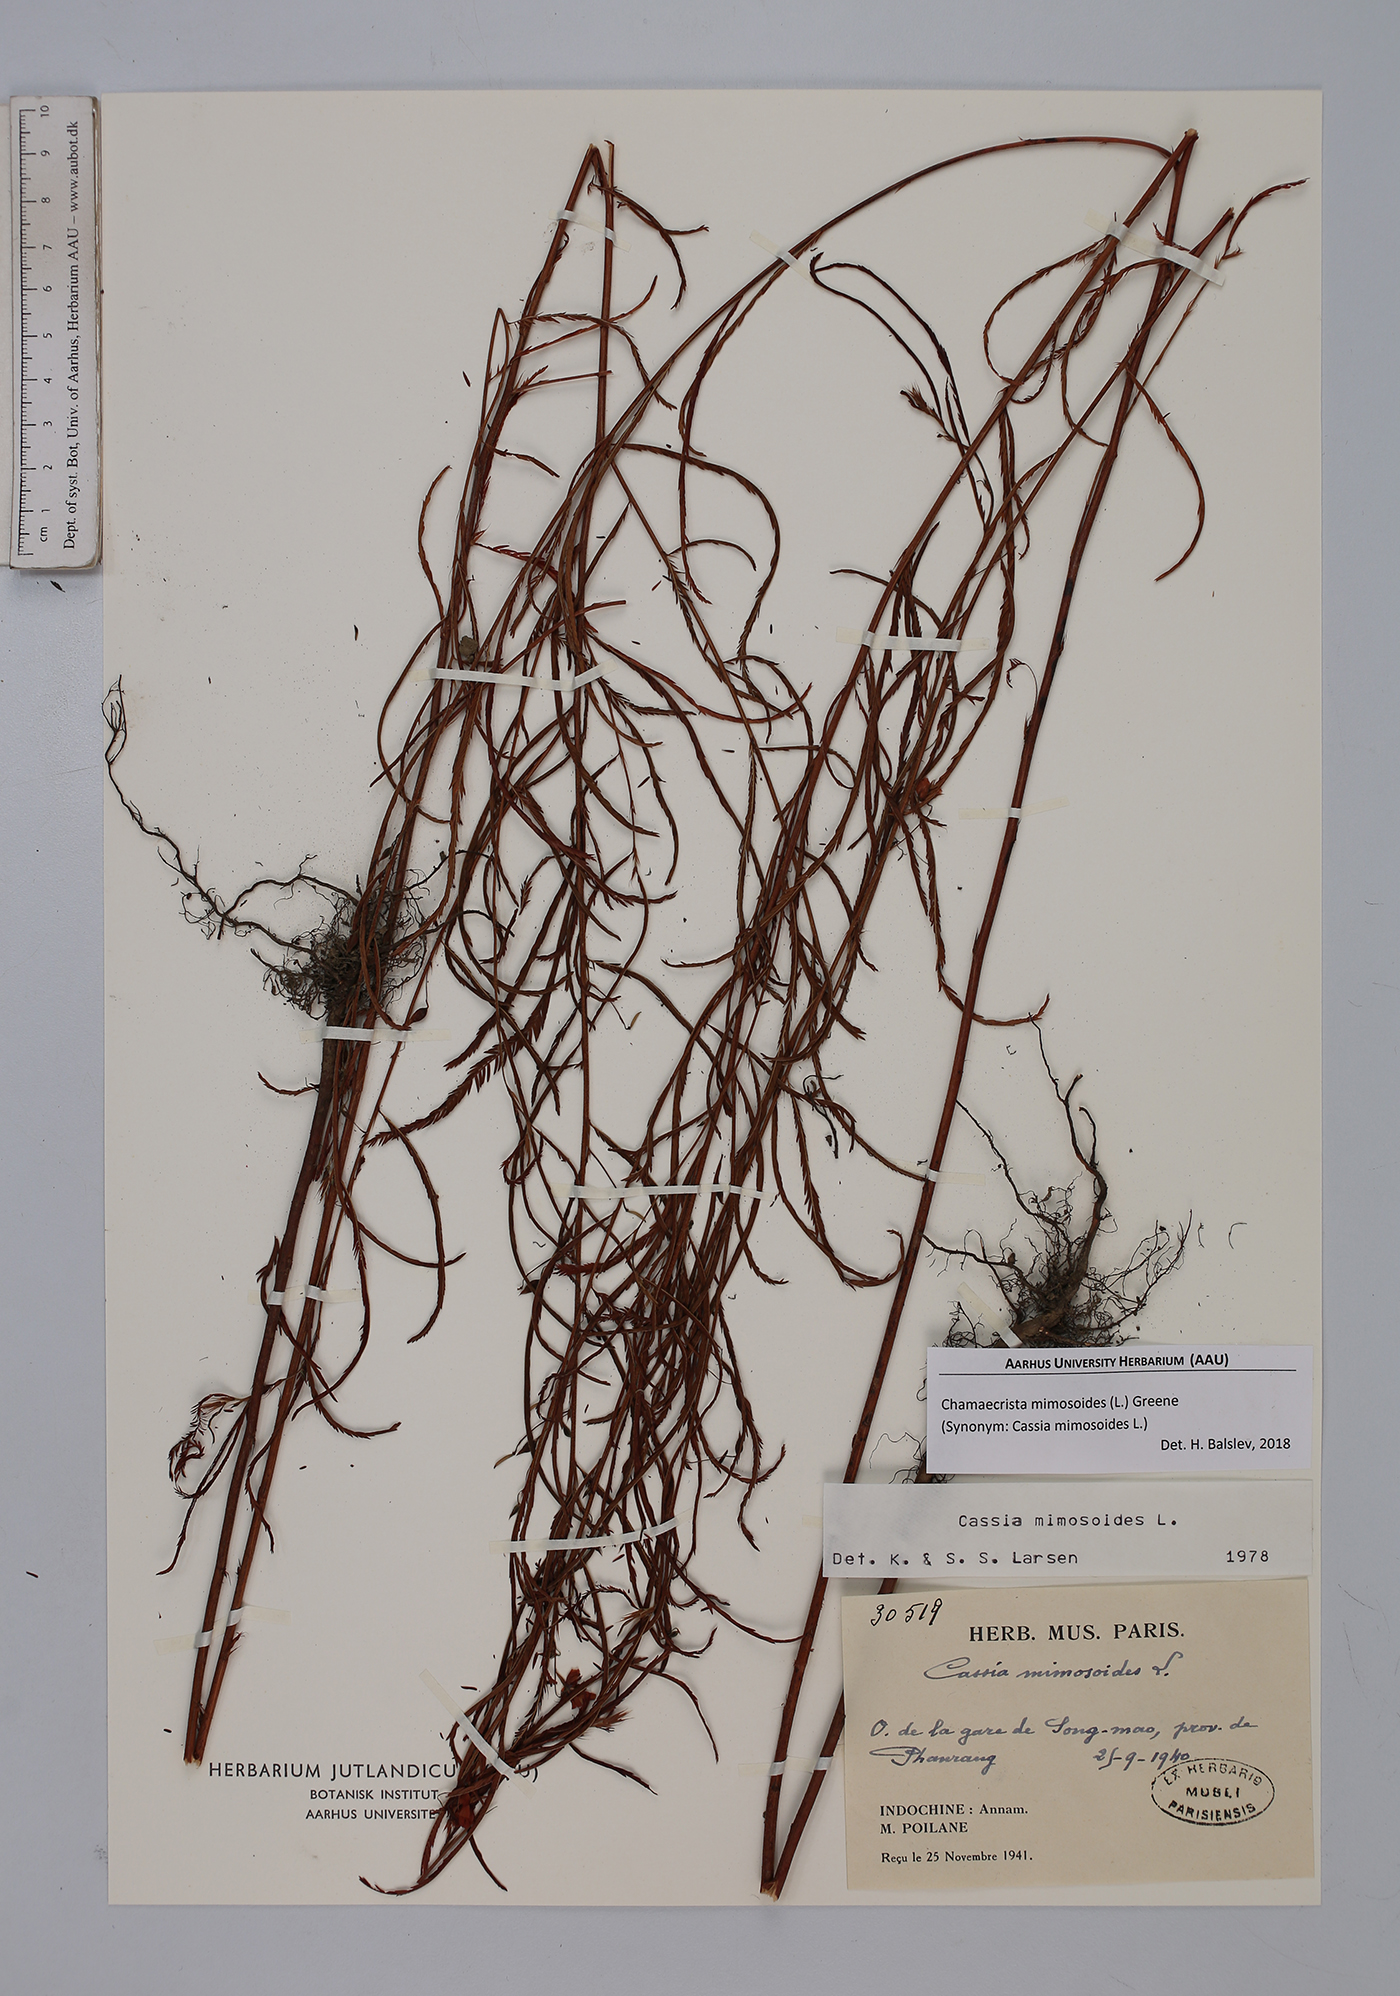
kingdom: Plantae
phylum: Tracheophyta
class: Magnoliopsida
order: Fabales
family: Fabaceae
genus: Chamaecrista
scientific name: Chamaecrista mimosoides
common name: Fish-bone cassia
